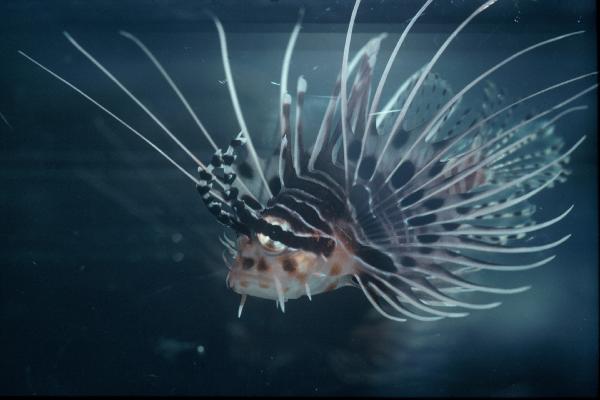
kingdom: Animalia
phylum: Chordata
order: Scorpaeniformes
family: Scorpaenidae
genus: Pterois
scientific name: Pterois antennata
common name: Spotfin lionfish
